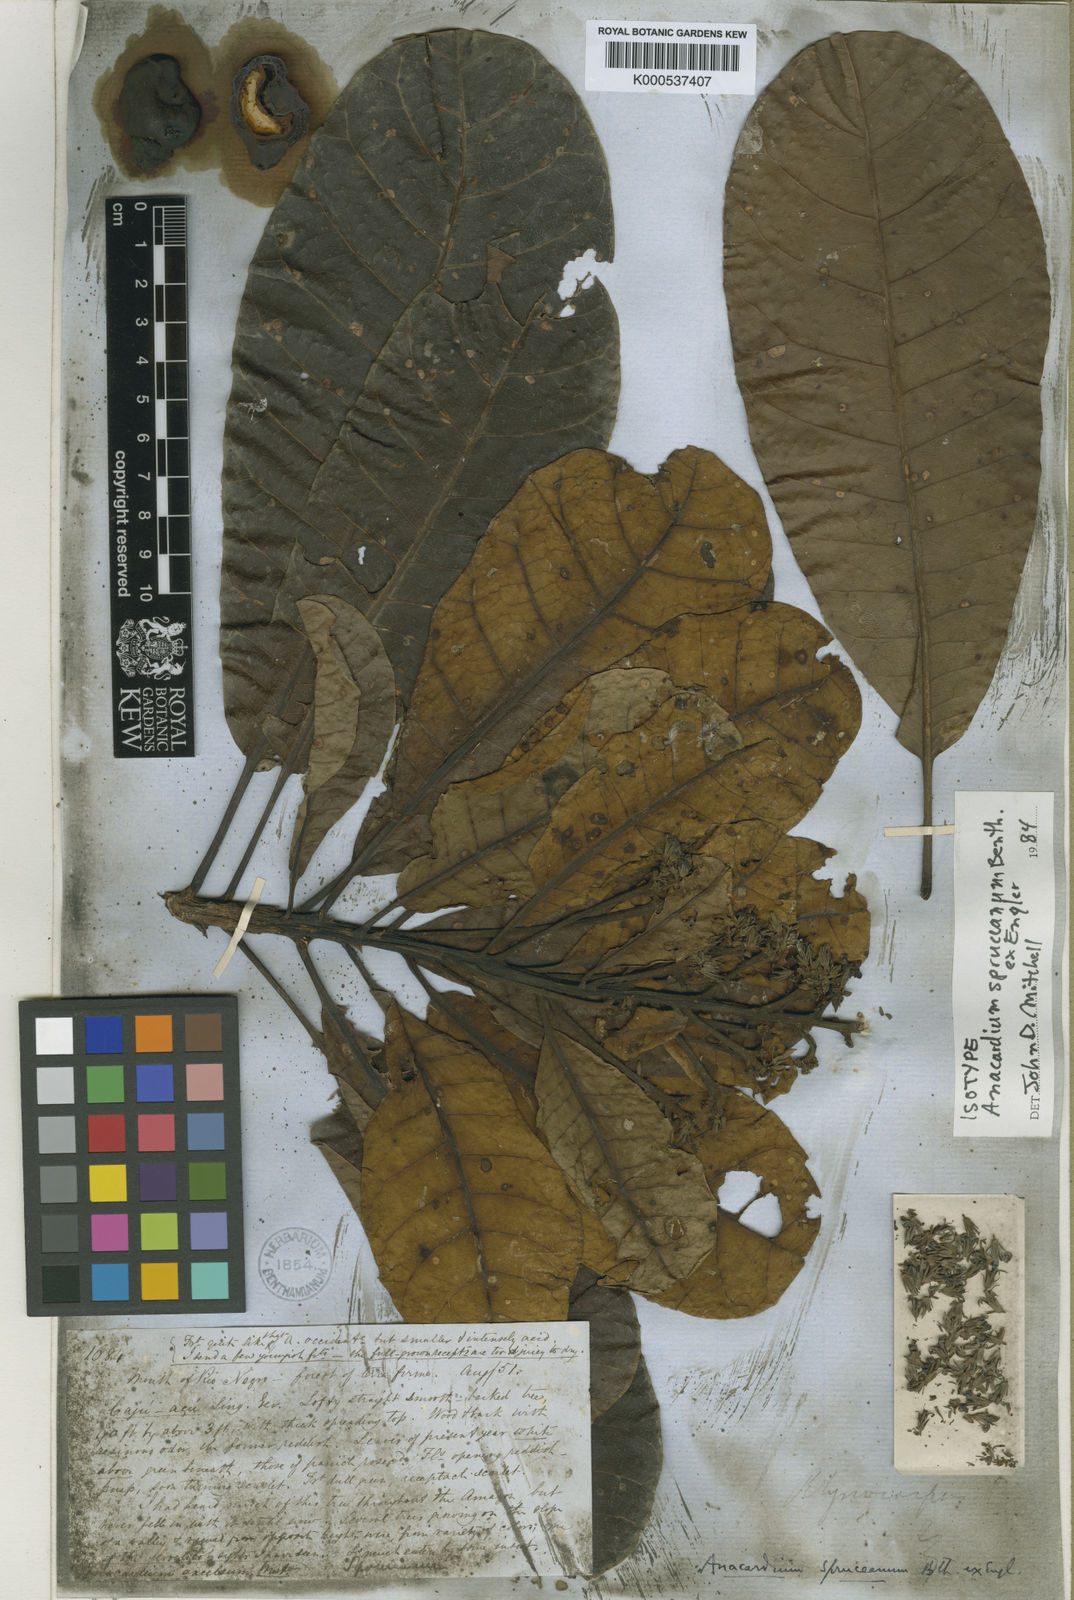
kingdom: Plantae
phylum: Tracheophyta
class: Magnoliopsida
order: Sapindales
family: Anacardiaceae
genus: Anacardium
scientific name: Anacardium spruceanum
